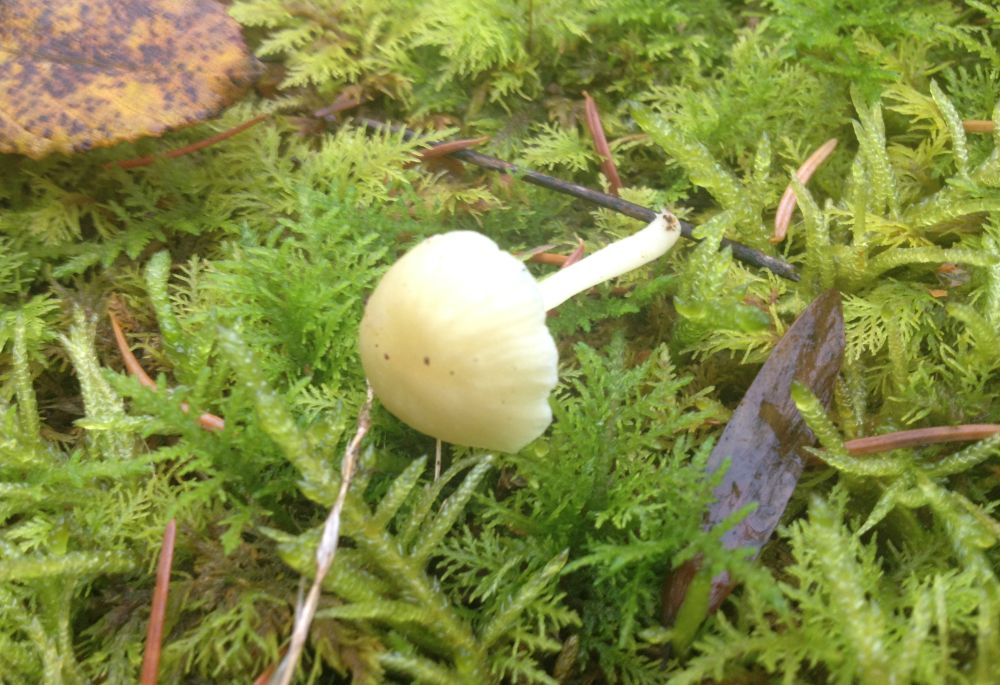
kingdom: Fungi
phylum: Basidiomycota
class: Agaricomycetes
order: Agaricales
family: Hygrophoraceae
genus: Chrysomphalina
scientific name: Chrysomphalina grossula
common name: stød-gyldenblad
